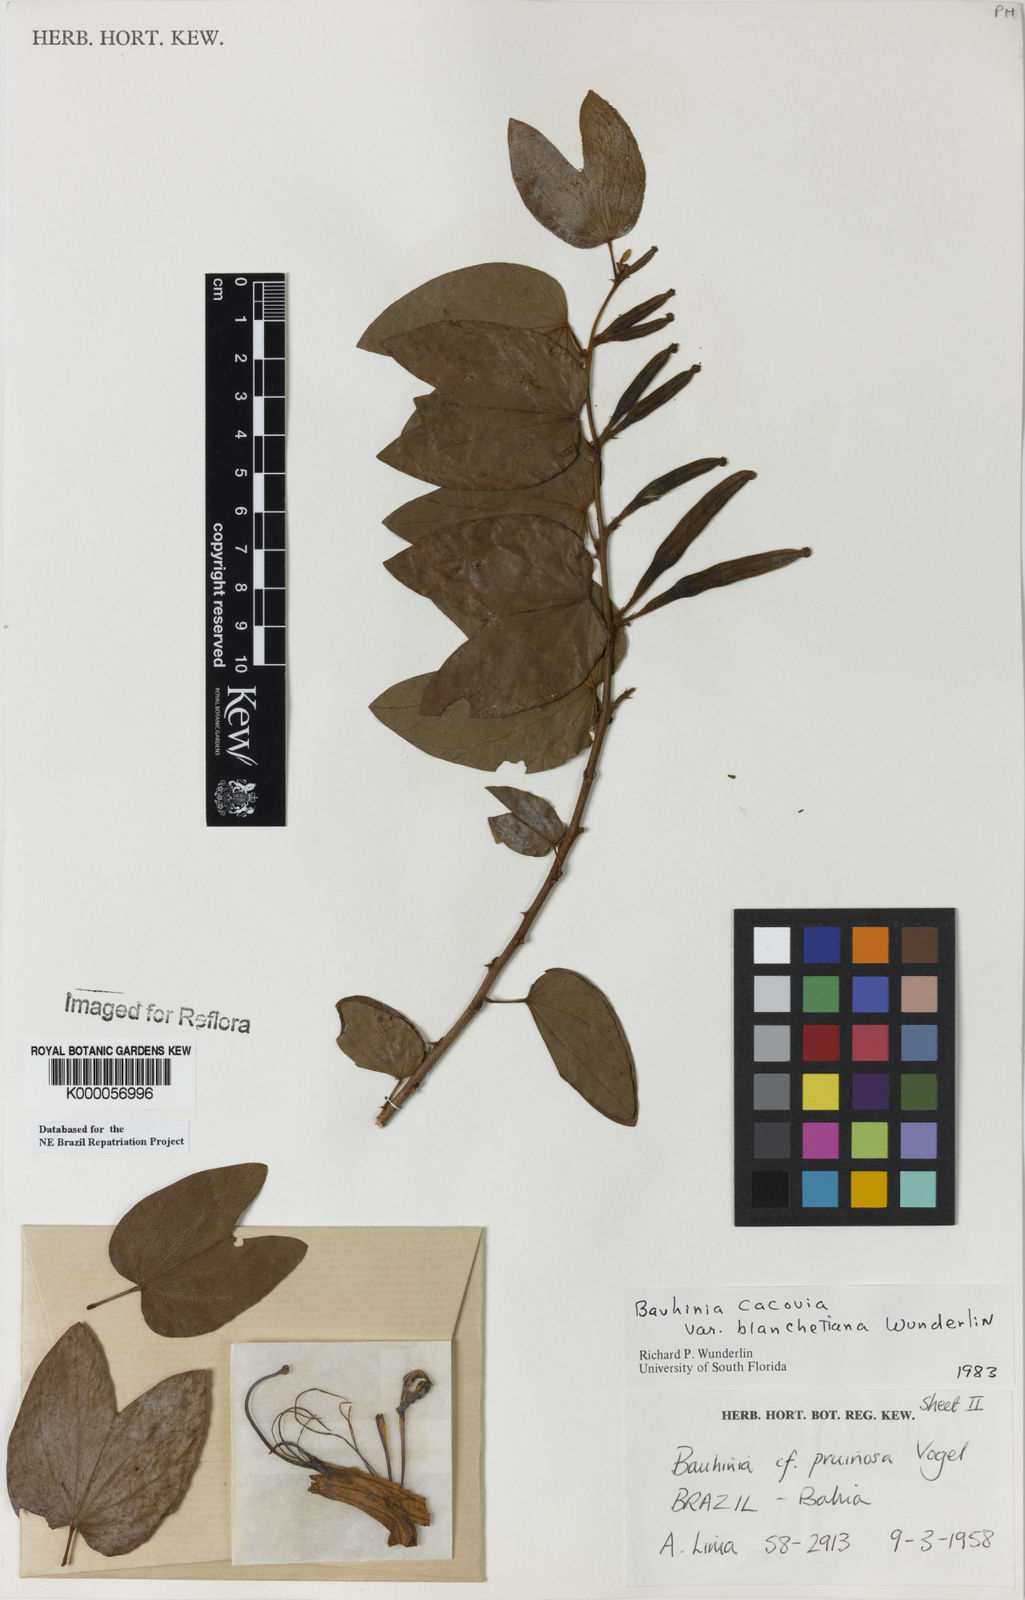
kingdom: Plantae
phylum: Tracheophyta
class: Magnoliopsida
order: Fabales
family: Fabaceae
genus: Bauhinia
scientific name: Bauhinia
